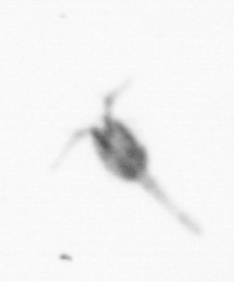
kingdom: Animalia
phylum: Arthropoda
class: Copepoda
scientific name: Copepoda
